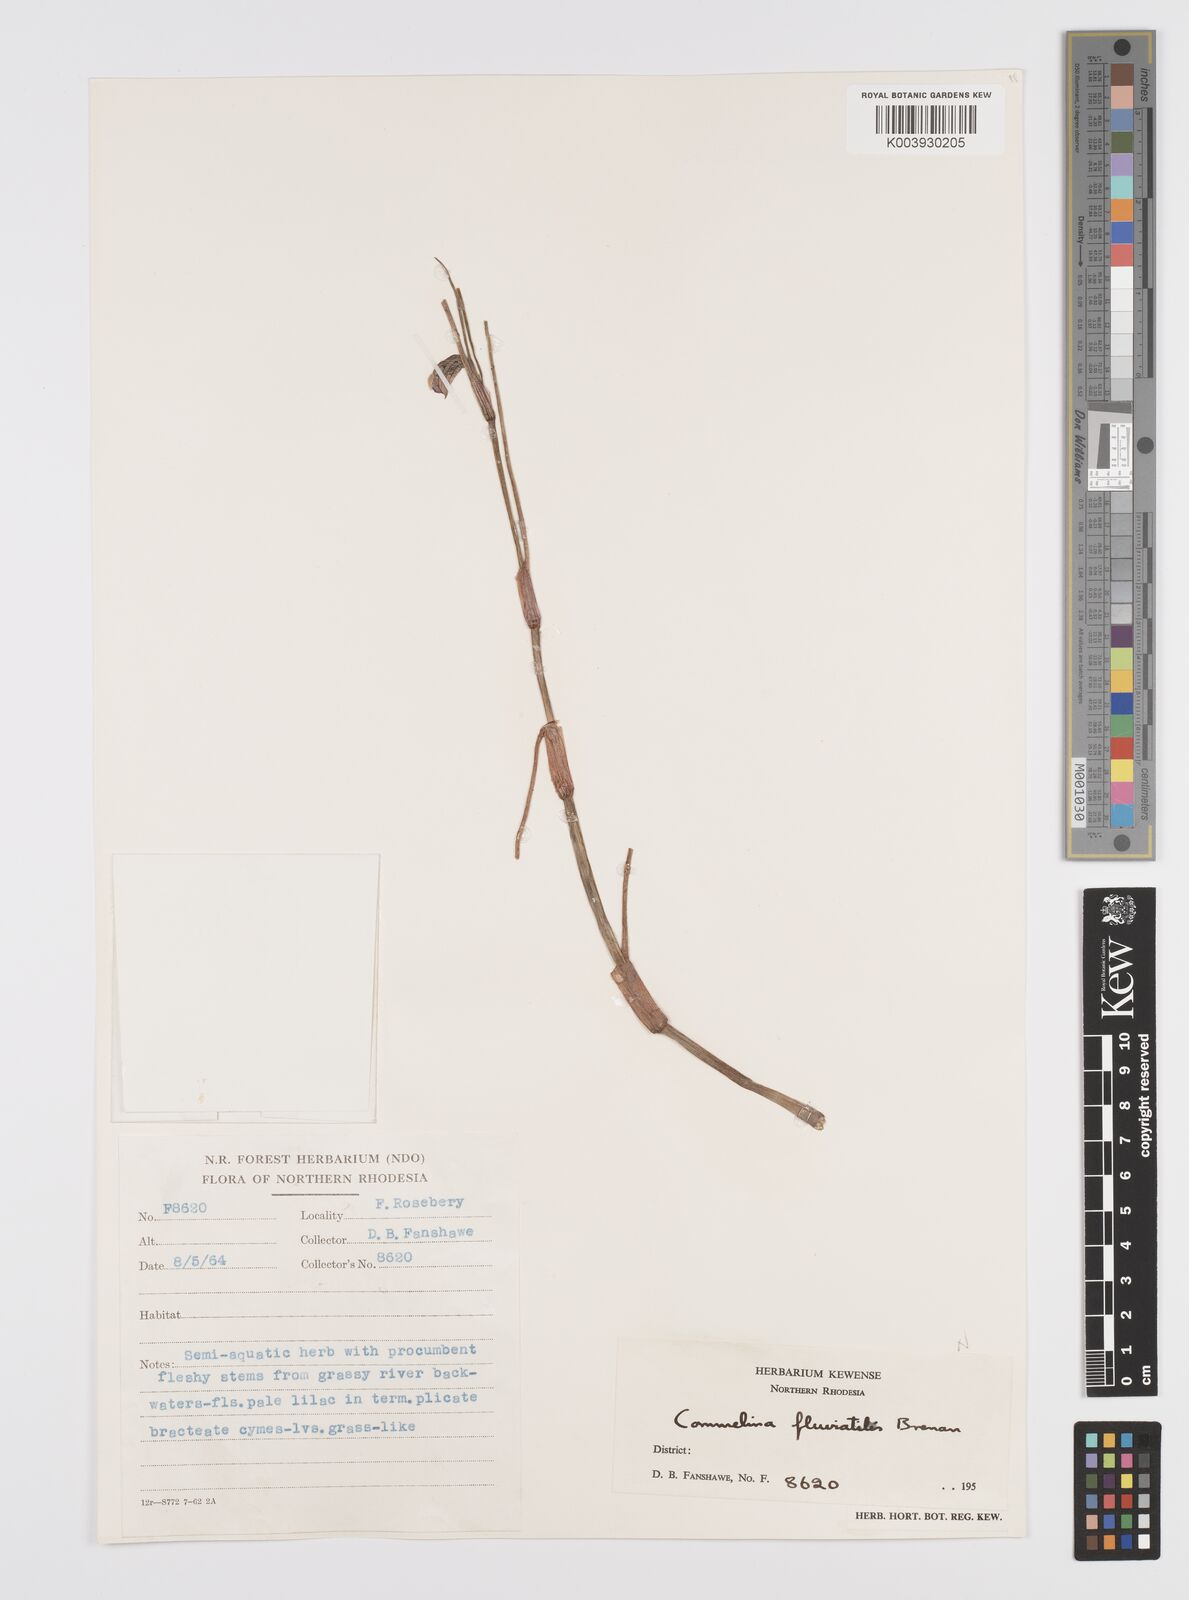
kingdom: Plantae
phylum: Tracheophyta
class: Liliopsida
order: Commelinales
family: Commelinaceae
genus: Commelina
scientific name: Commelina fluviatilis
